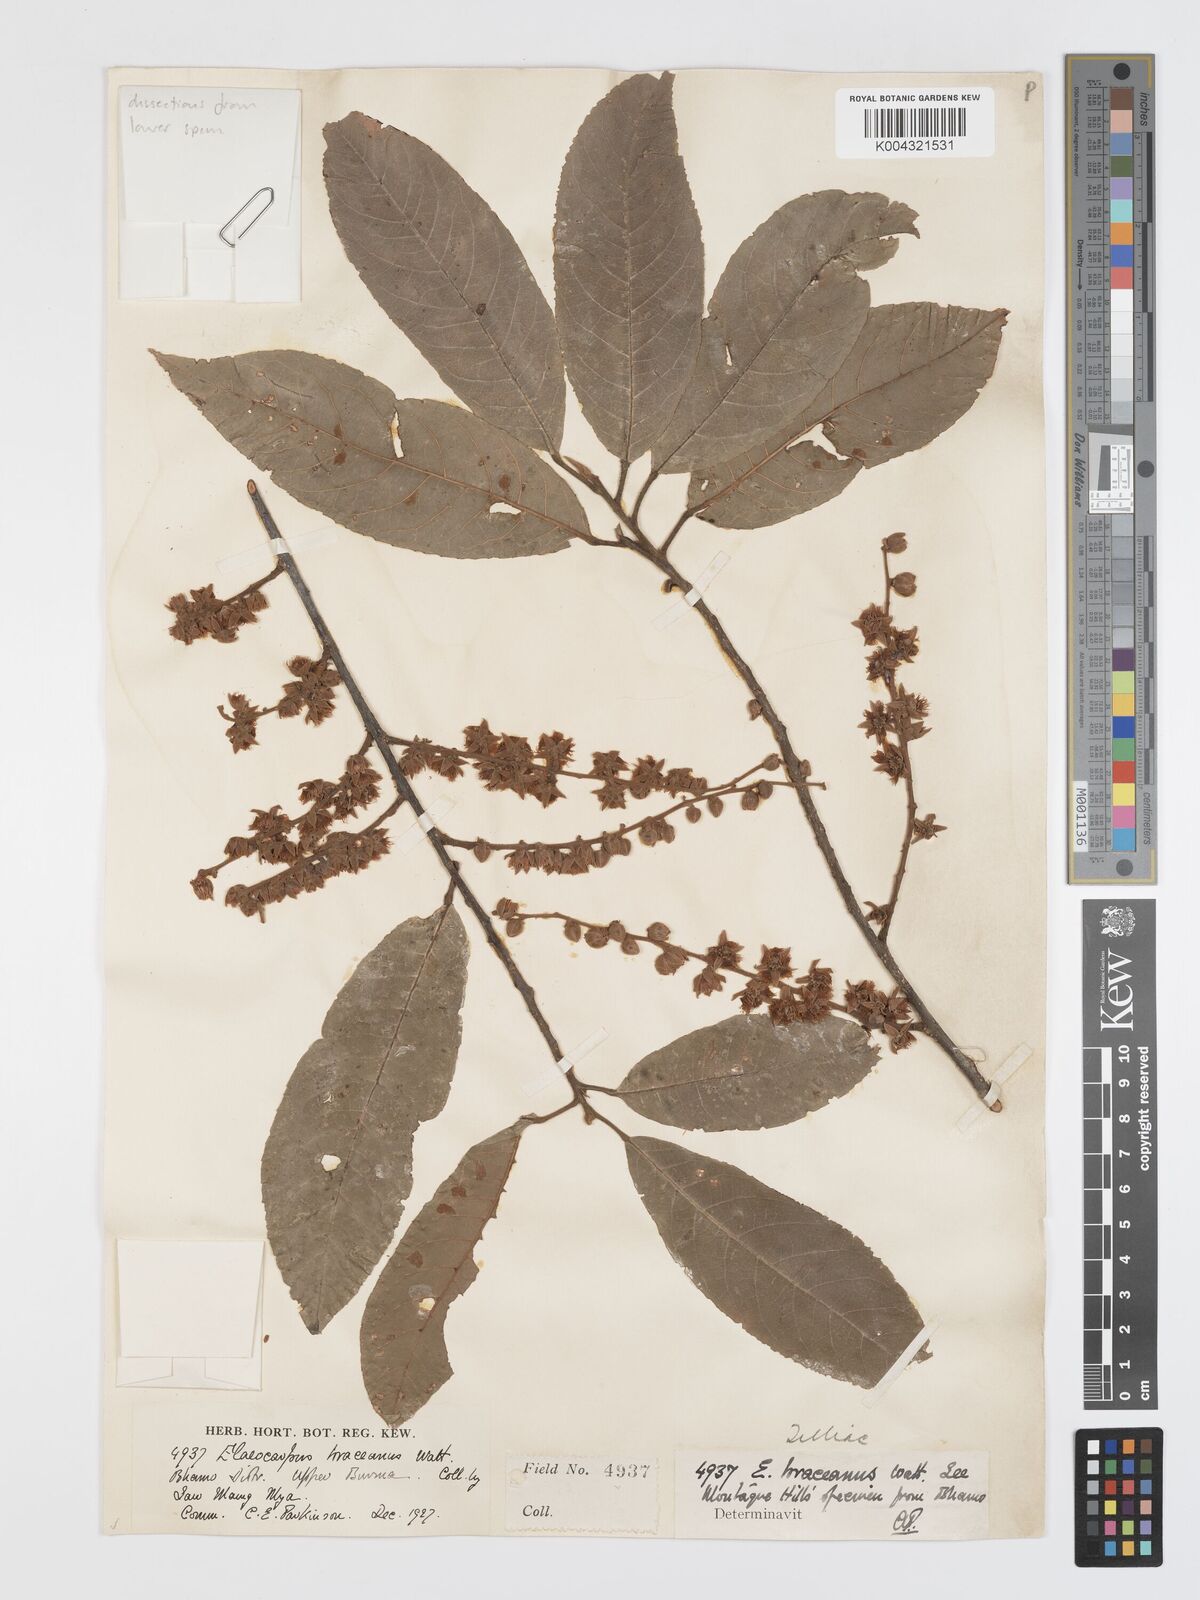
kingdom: Plantae
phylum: Tracheophyta
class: Magnoliopsida
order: Oxalidales
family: Elaeocarpaceae
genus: Elaeocarpus
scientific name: Elaeocarpus braceanus
